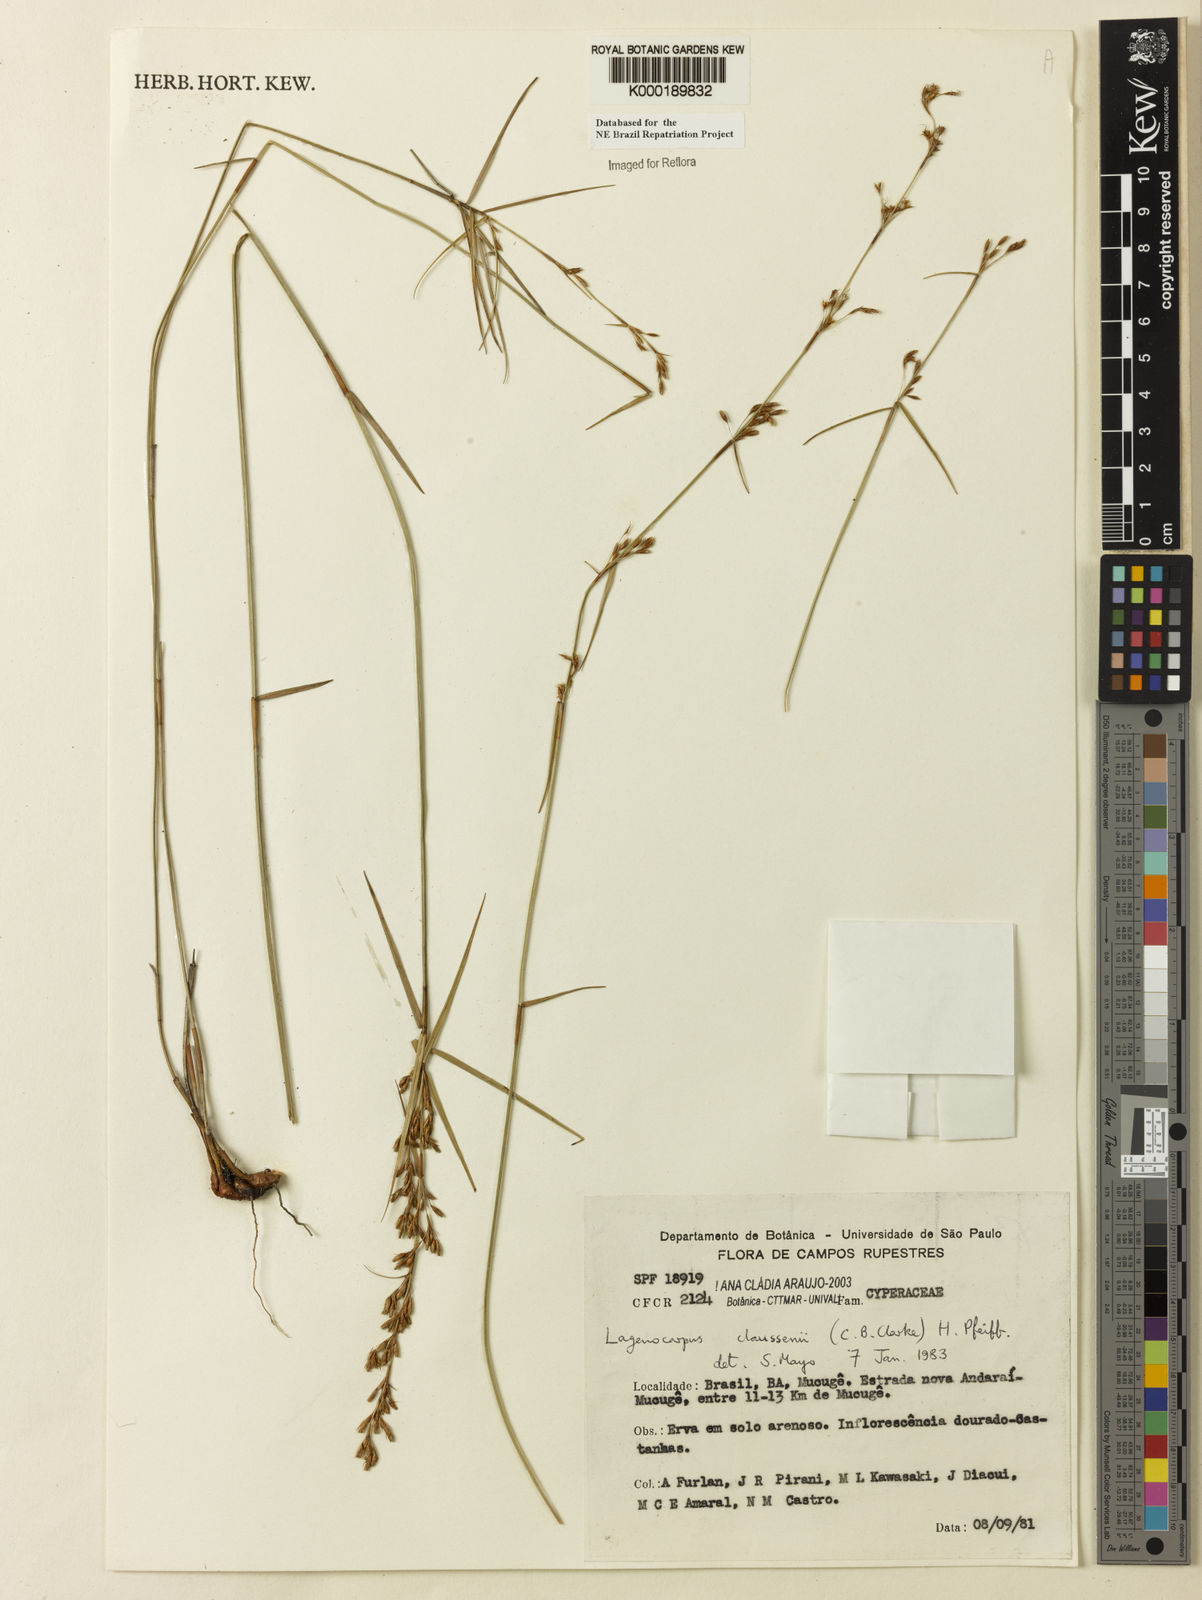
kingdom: Plantae
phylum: Tracheophyta
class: Liliopsida
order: Poales
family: Cyperaceae
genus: Krenakia
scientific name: Krenakia claussenii
